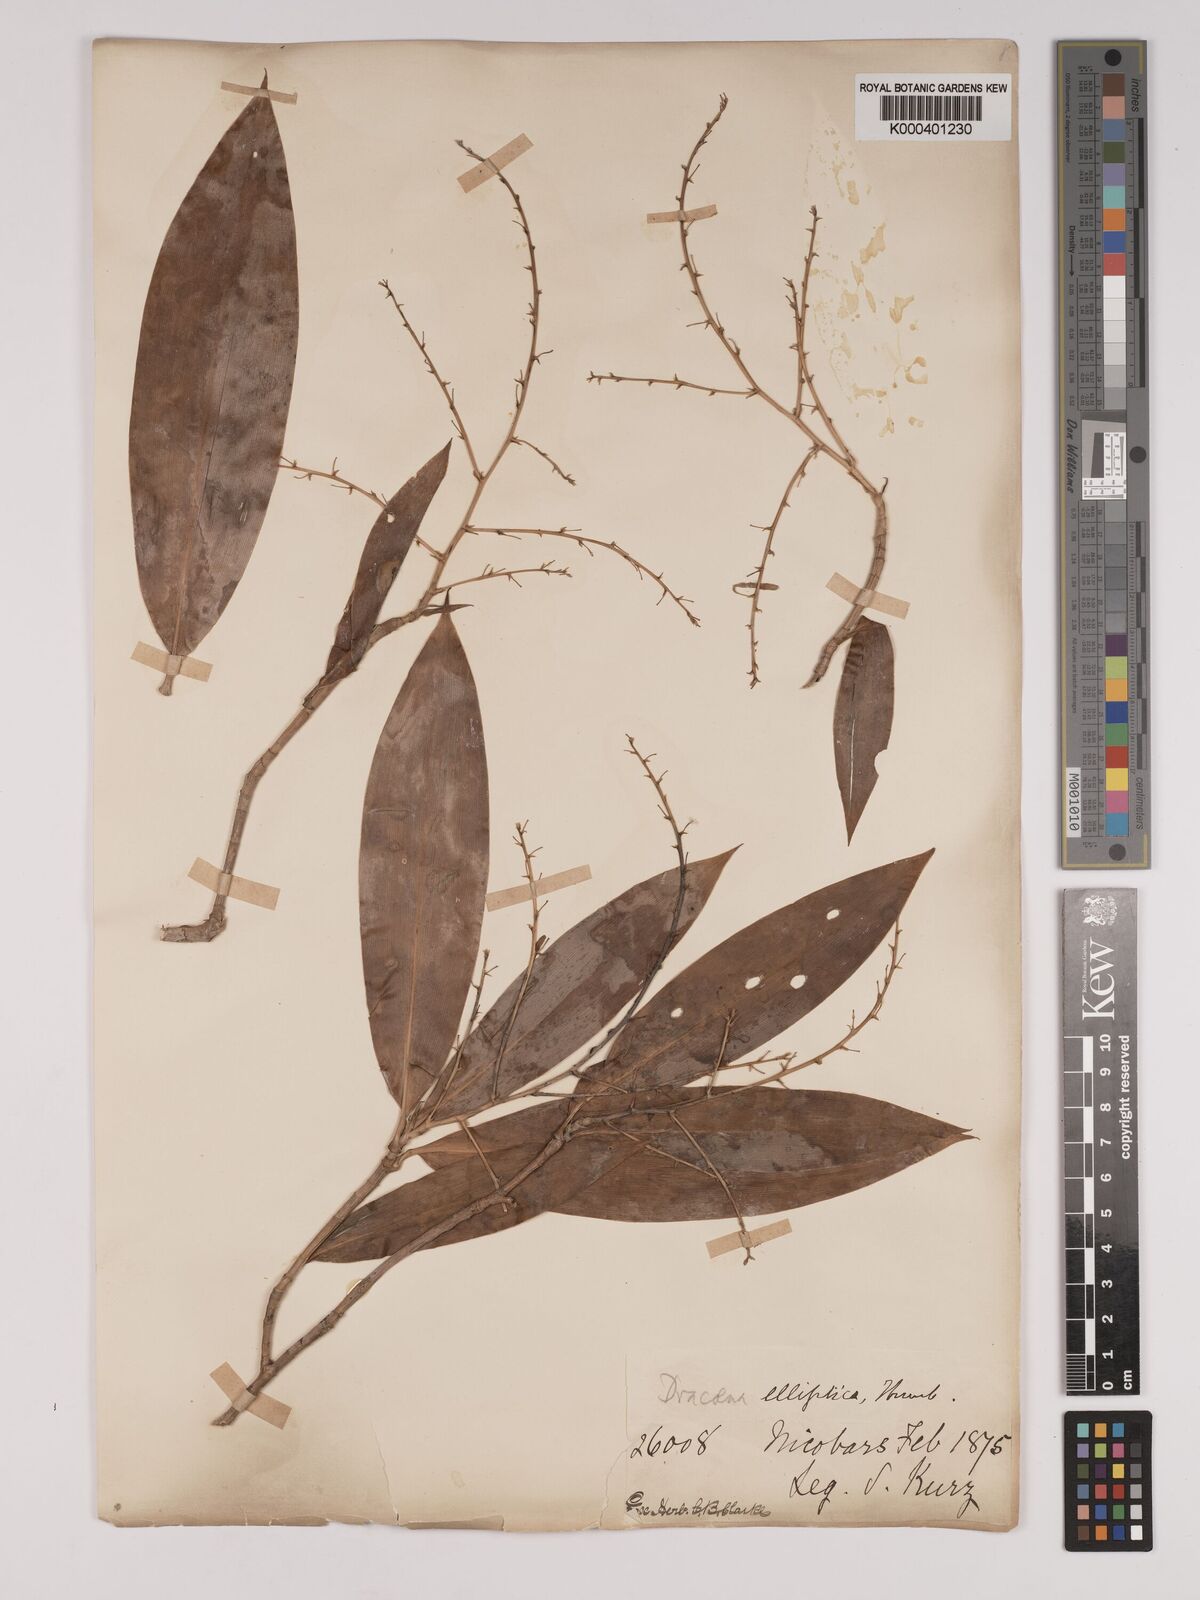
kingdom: Plantae
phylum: Tracheophyta
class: Liliopsida
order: Asparagales
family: Asparagaceae
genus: Dracaena
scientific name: Dracaena elliptica
